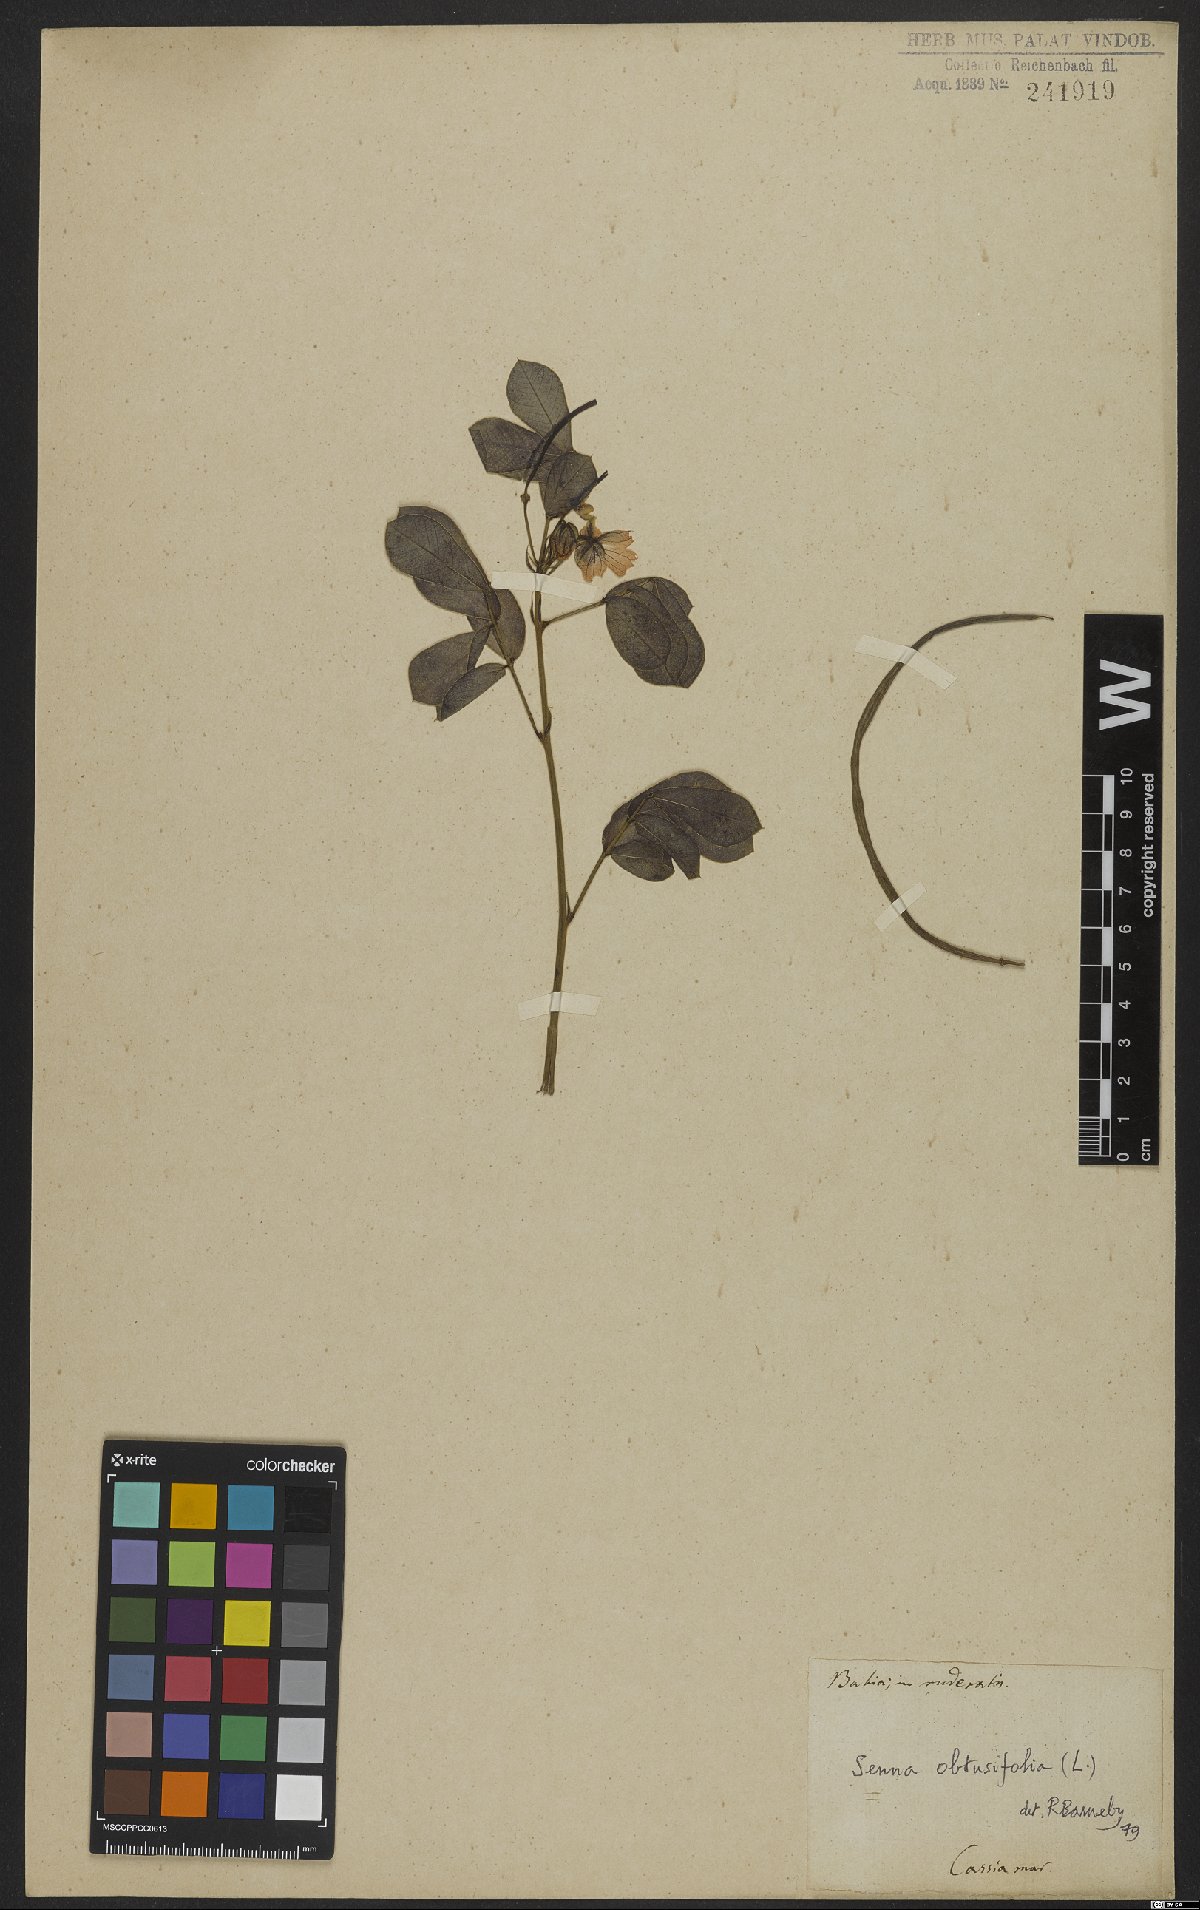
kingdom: Plantae
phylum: Tracheophyta
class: Magnoliopsida
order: Fabales
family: Fabaceae
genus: Senna
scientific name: Senna obtusifolia
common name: Java-bean
